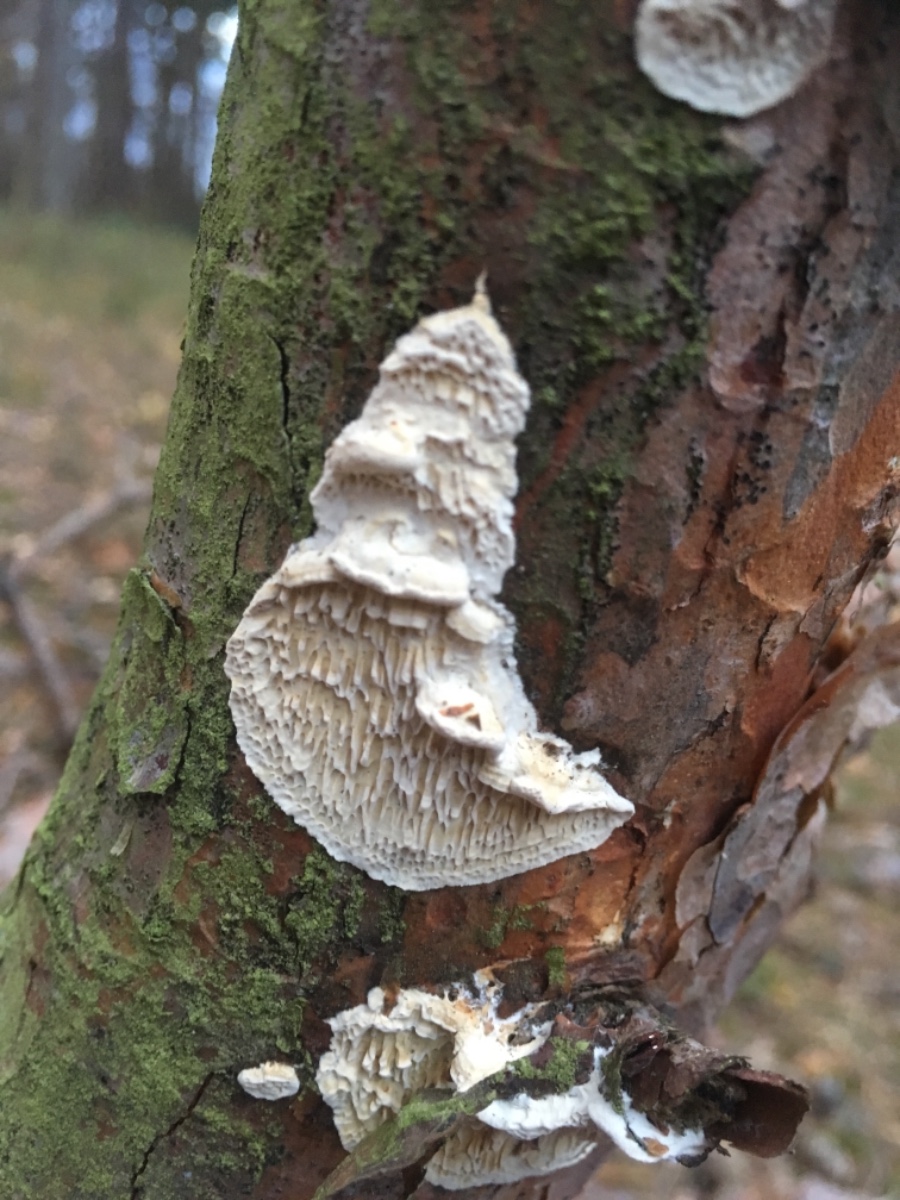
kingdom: Fungi
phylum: Basidiomycota
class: Agaricomycetes
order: Polyporales
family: Fomitopsidaceae
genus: Fomitopsis
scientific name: Fomitopsis
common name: fyrre-skiveporesvamp
